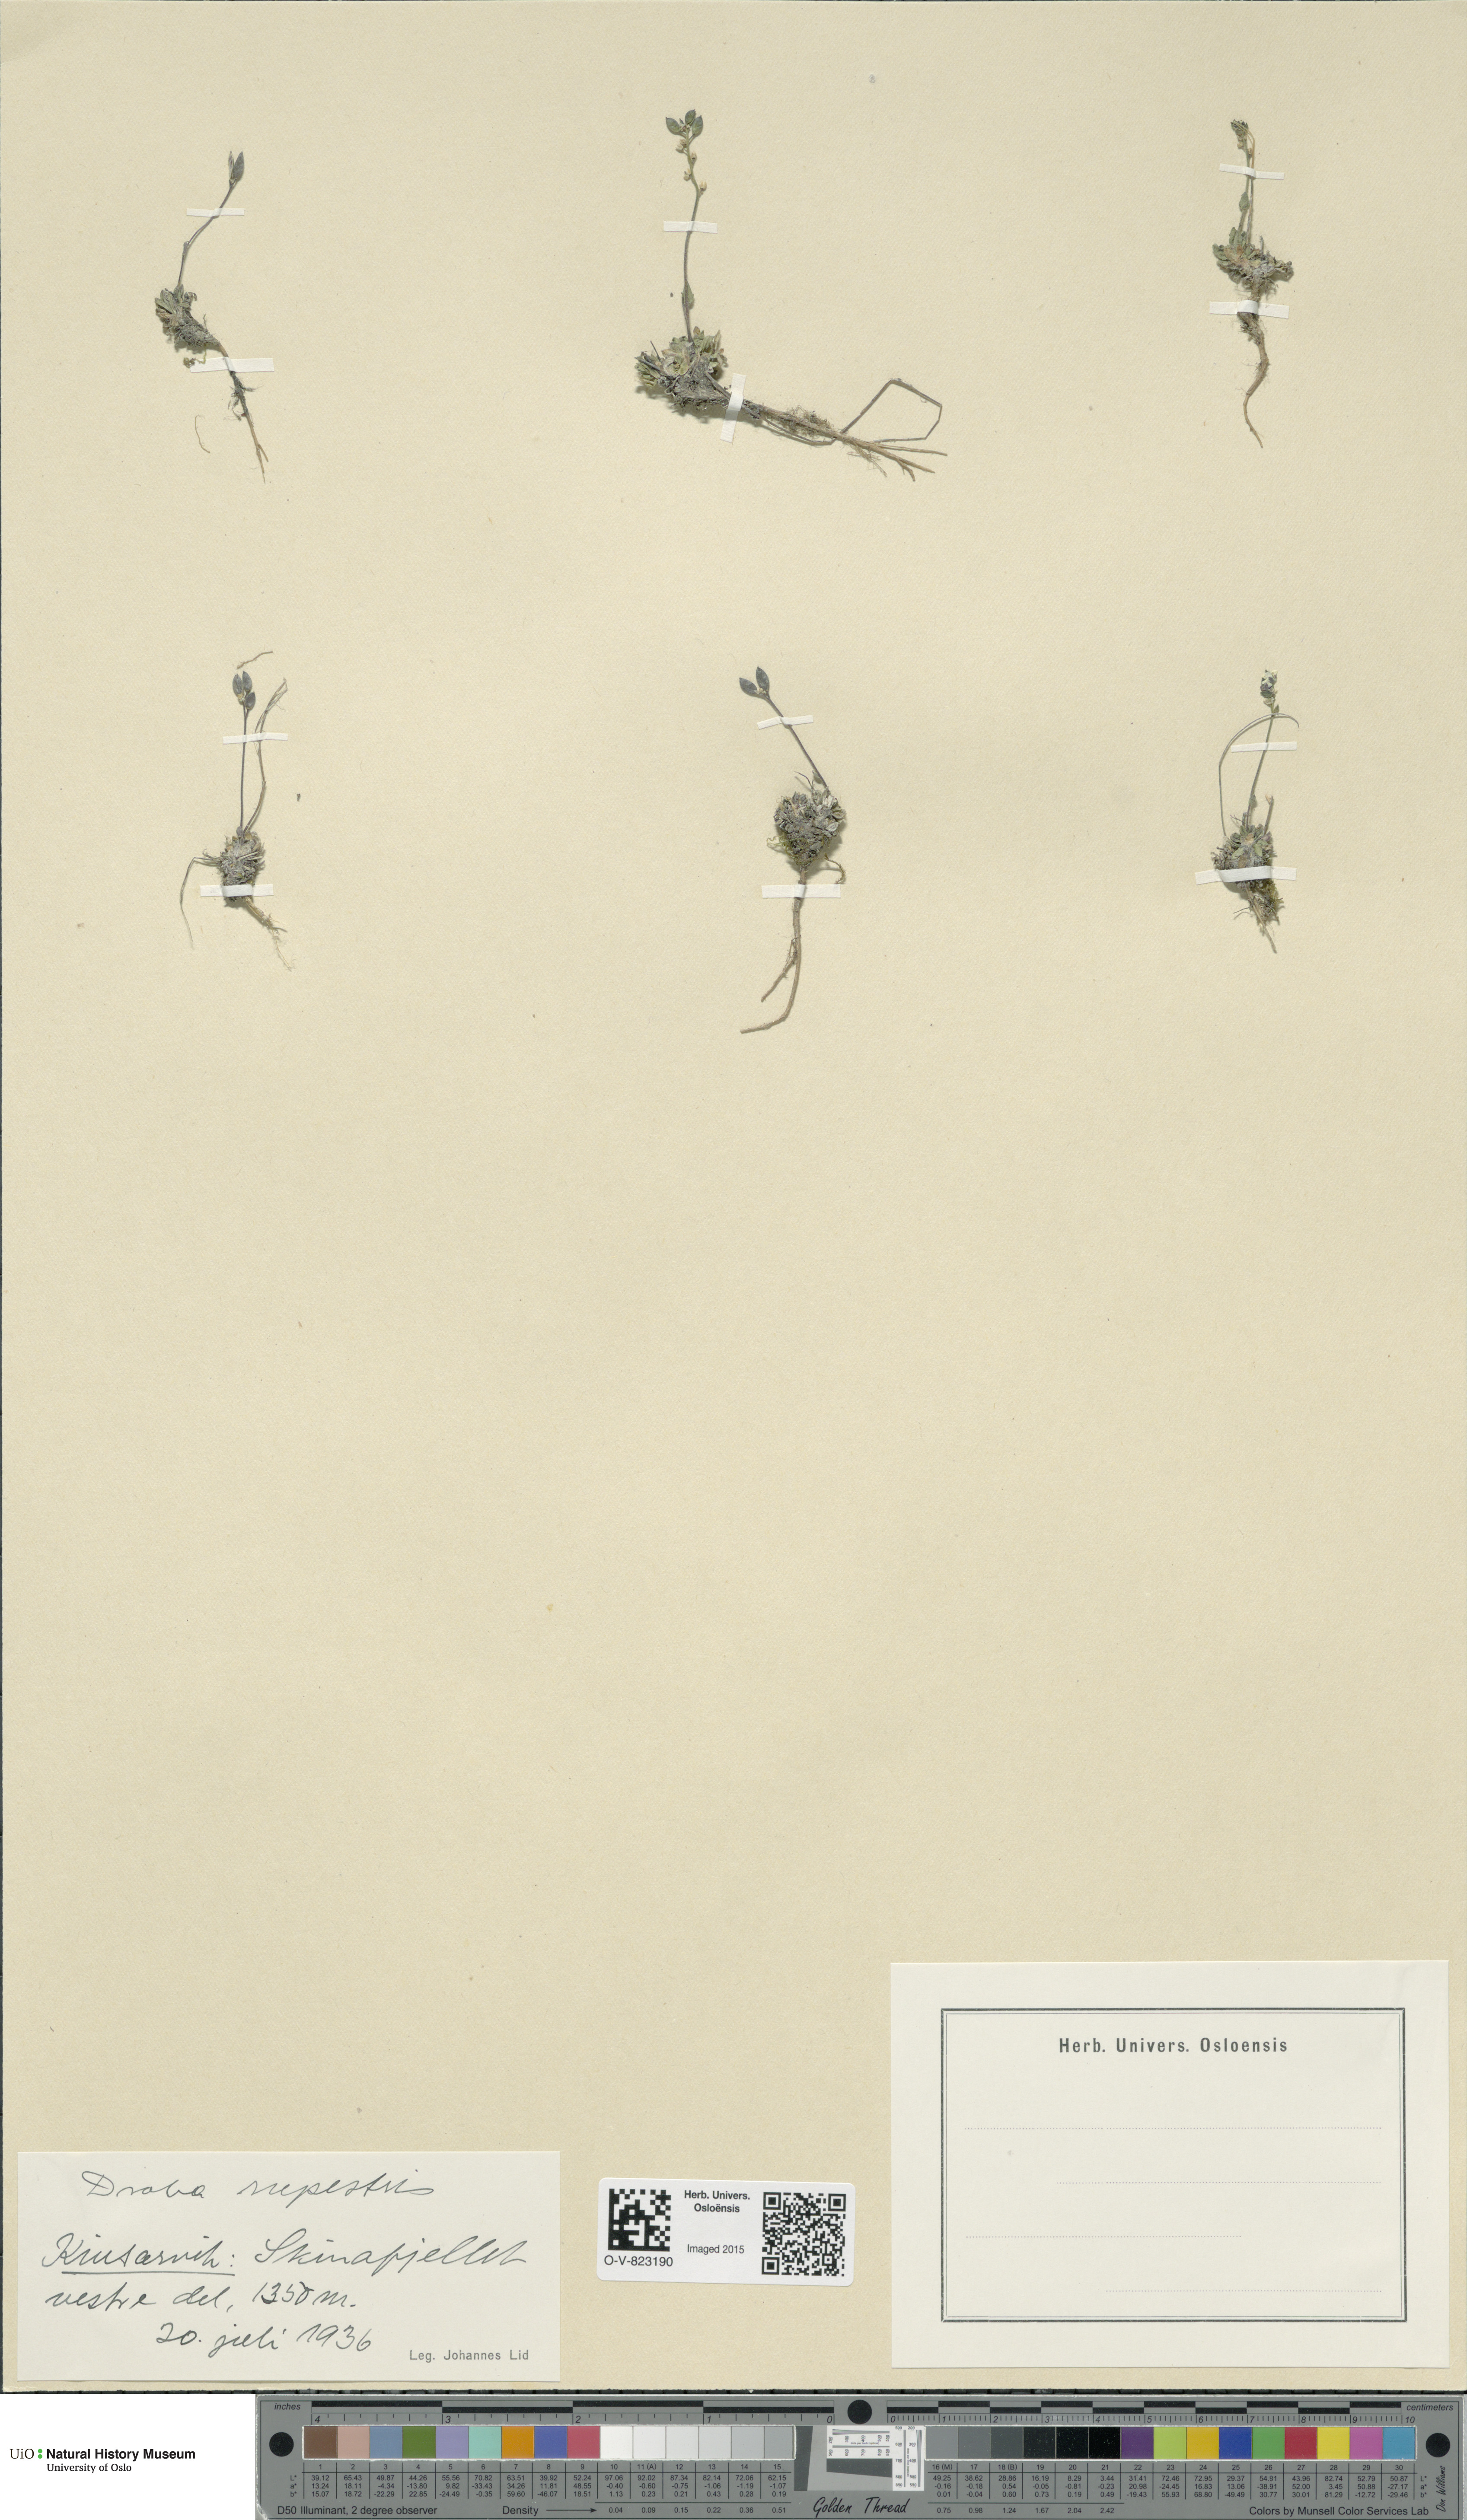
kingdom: Plantae
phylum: Tracheophyta
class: Magnoliopsida
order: Brassicales
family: Brassicaceae
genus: Draba
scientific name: Draba norvegica
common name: Rock whitlowgrass
